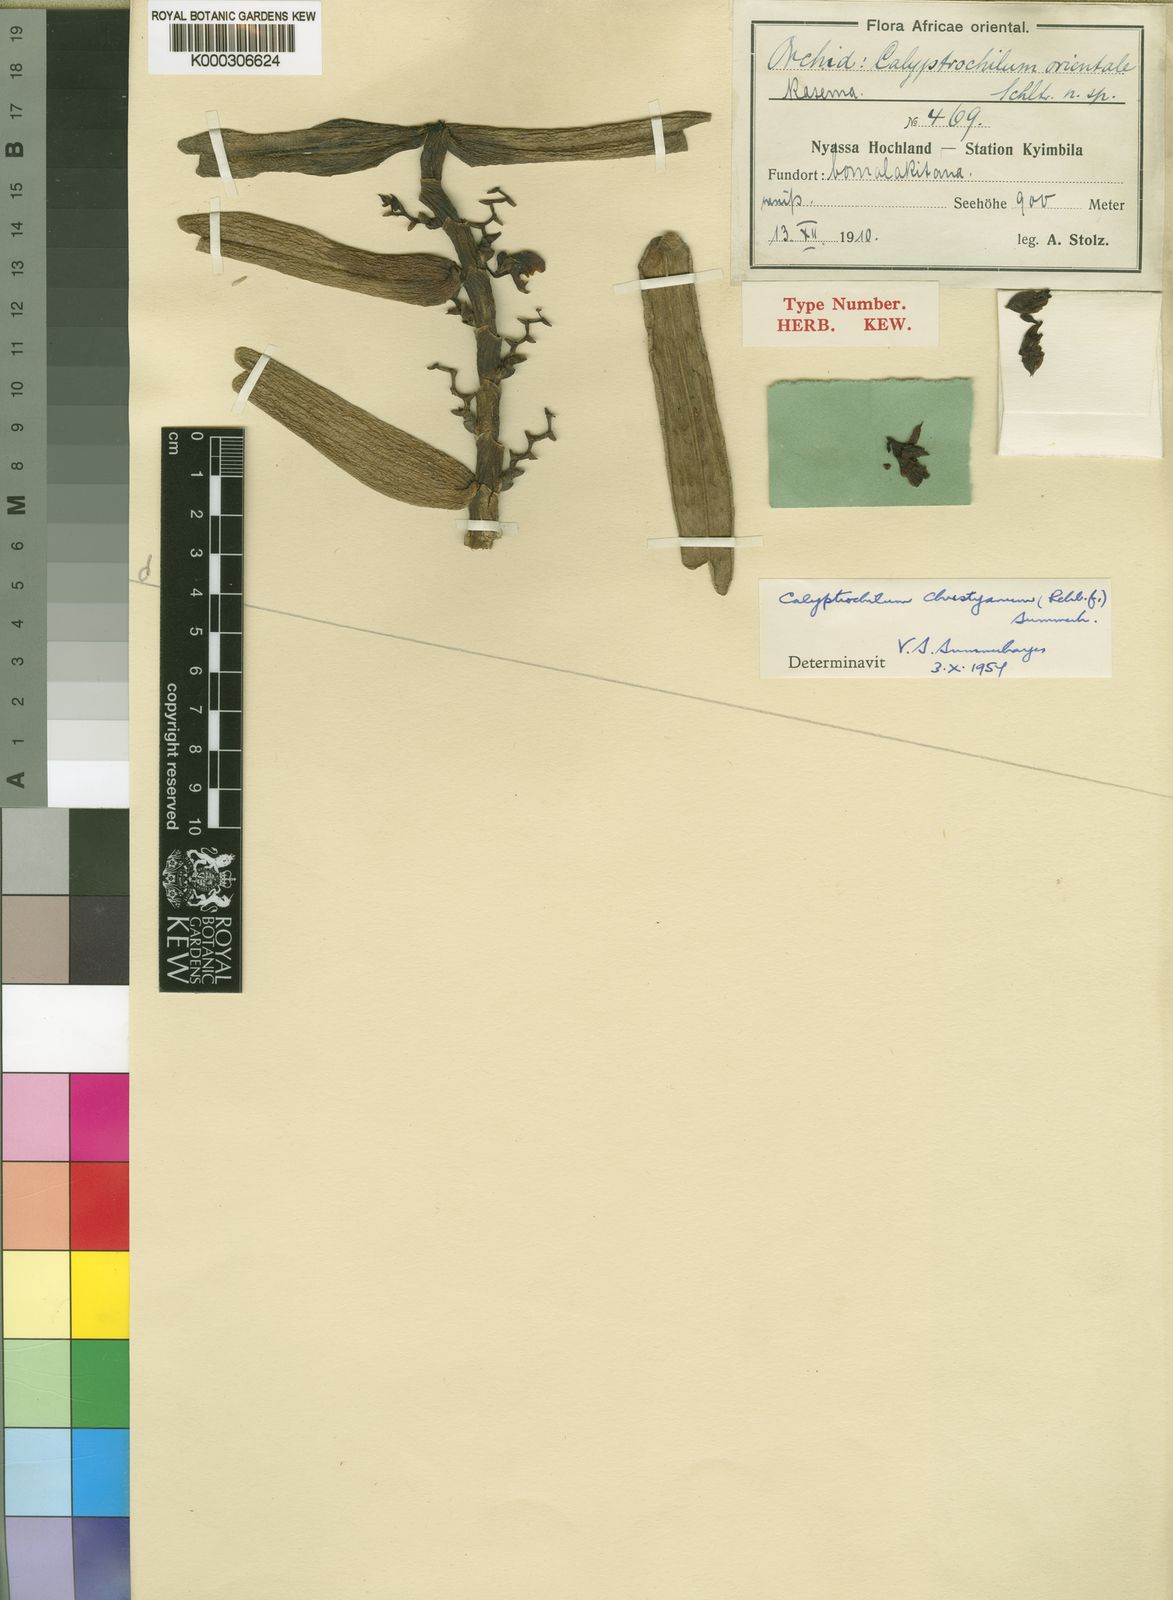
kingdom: Plantae
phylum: Tracheophyta
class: Liliopsida
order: Asparagales
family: Orchidaceae
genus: Calyptrochilum
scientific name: Calyptrochilum christyanum
